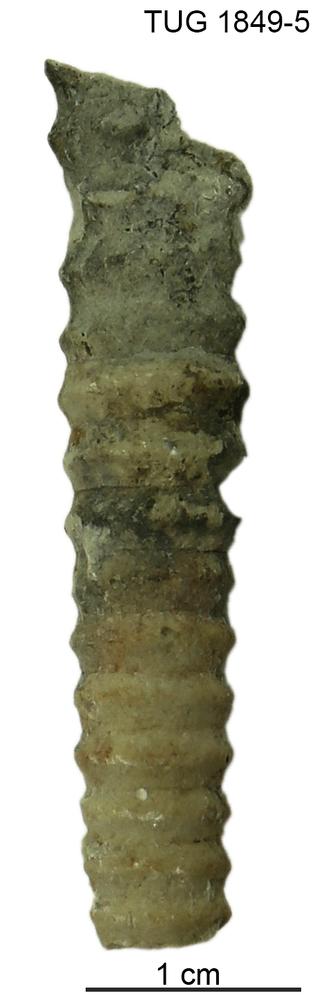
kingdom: Animalia
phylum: Mollusca
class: Cephalopoda
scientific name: Cephalopoda
